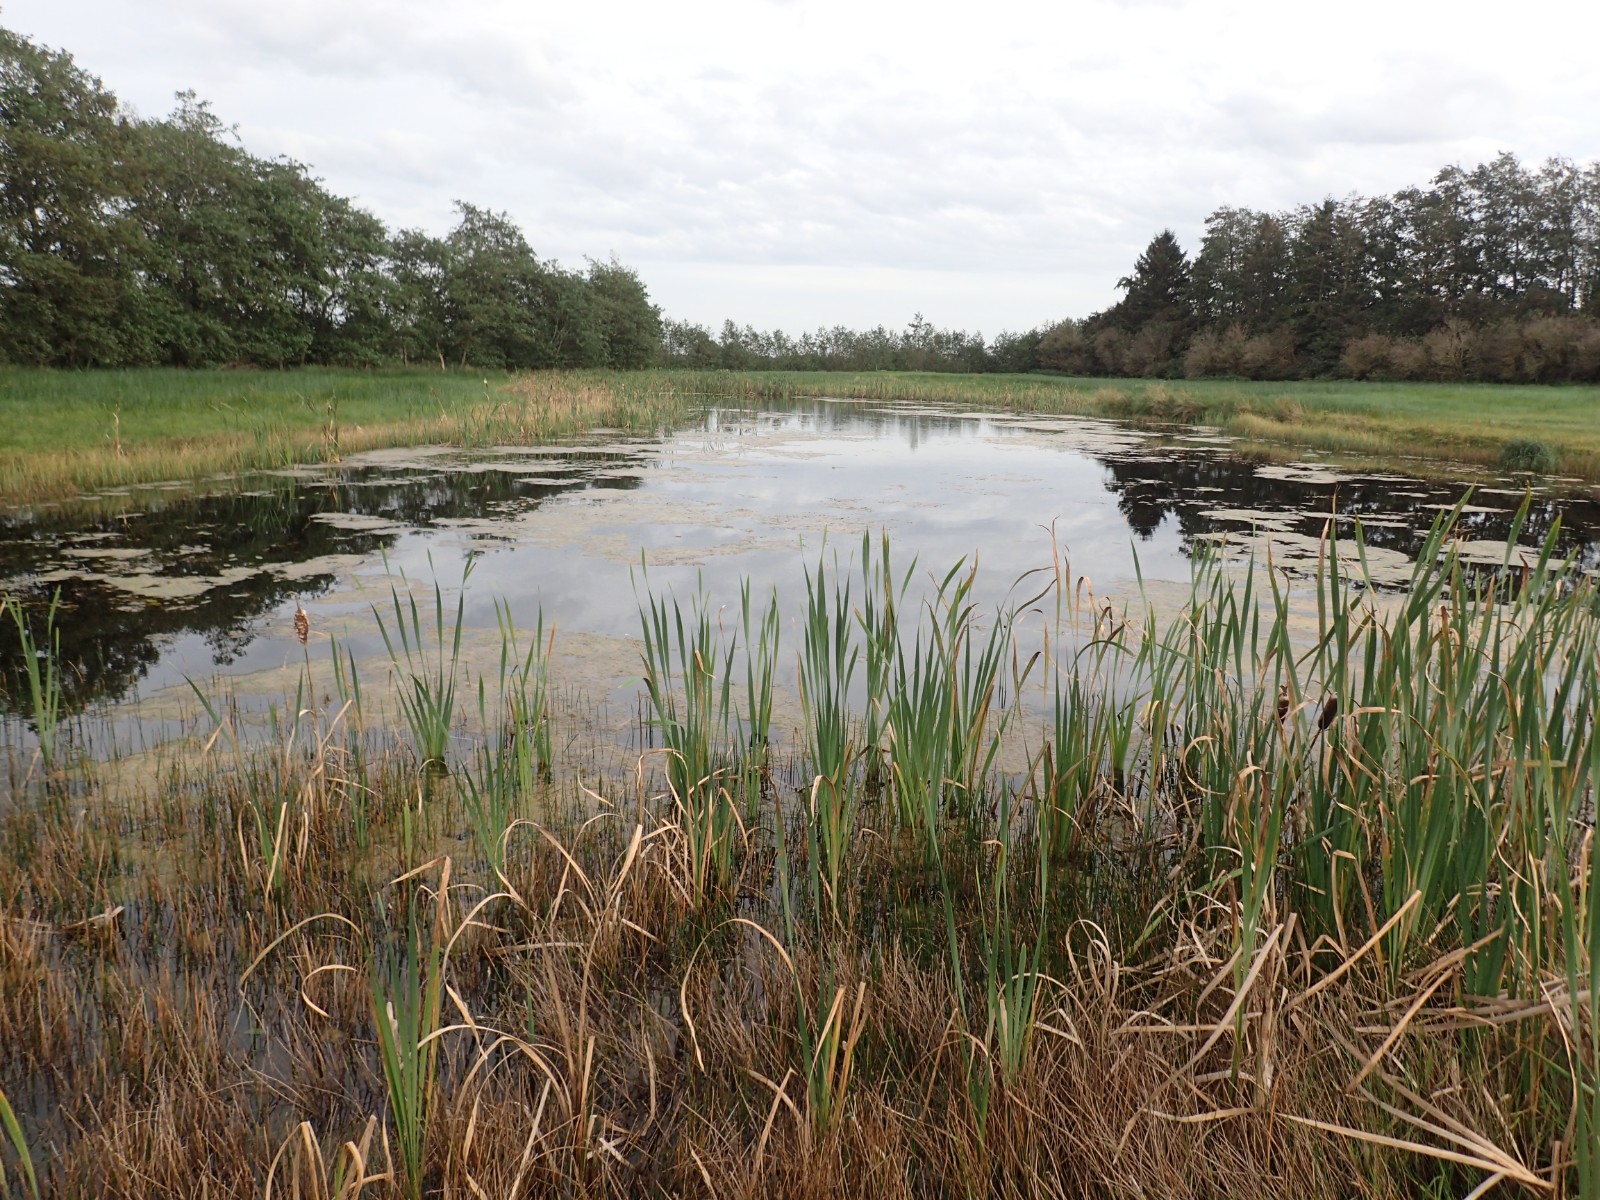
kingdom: Fungi
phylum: Basidiomycota
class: Agaricomycetes
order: Agaricales
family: Hymenogastraceae
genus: Galerina
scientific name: Galerina
